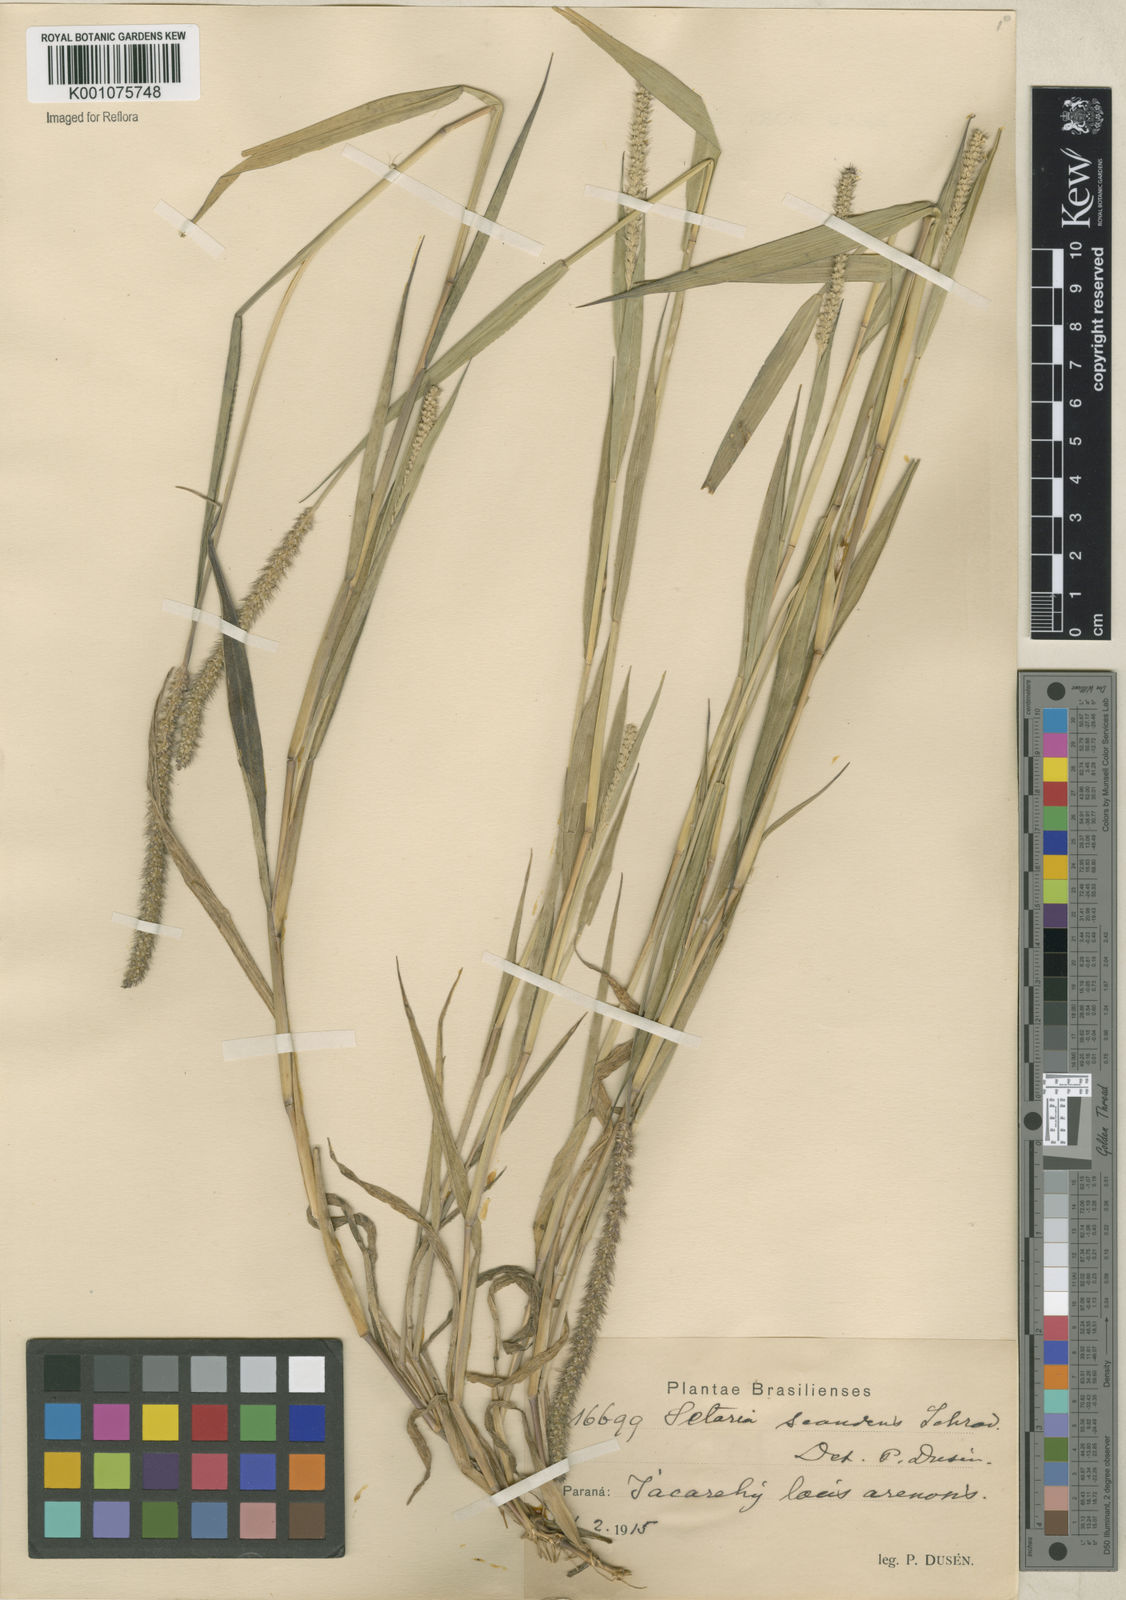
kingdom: Plantae
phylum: Tracheophyta
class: Liliopsida
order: Poales
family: Poaceae
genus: Setaria
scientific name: Setaria scandens
